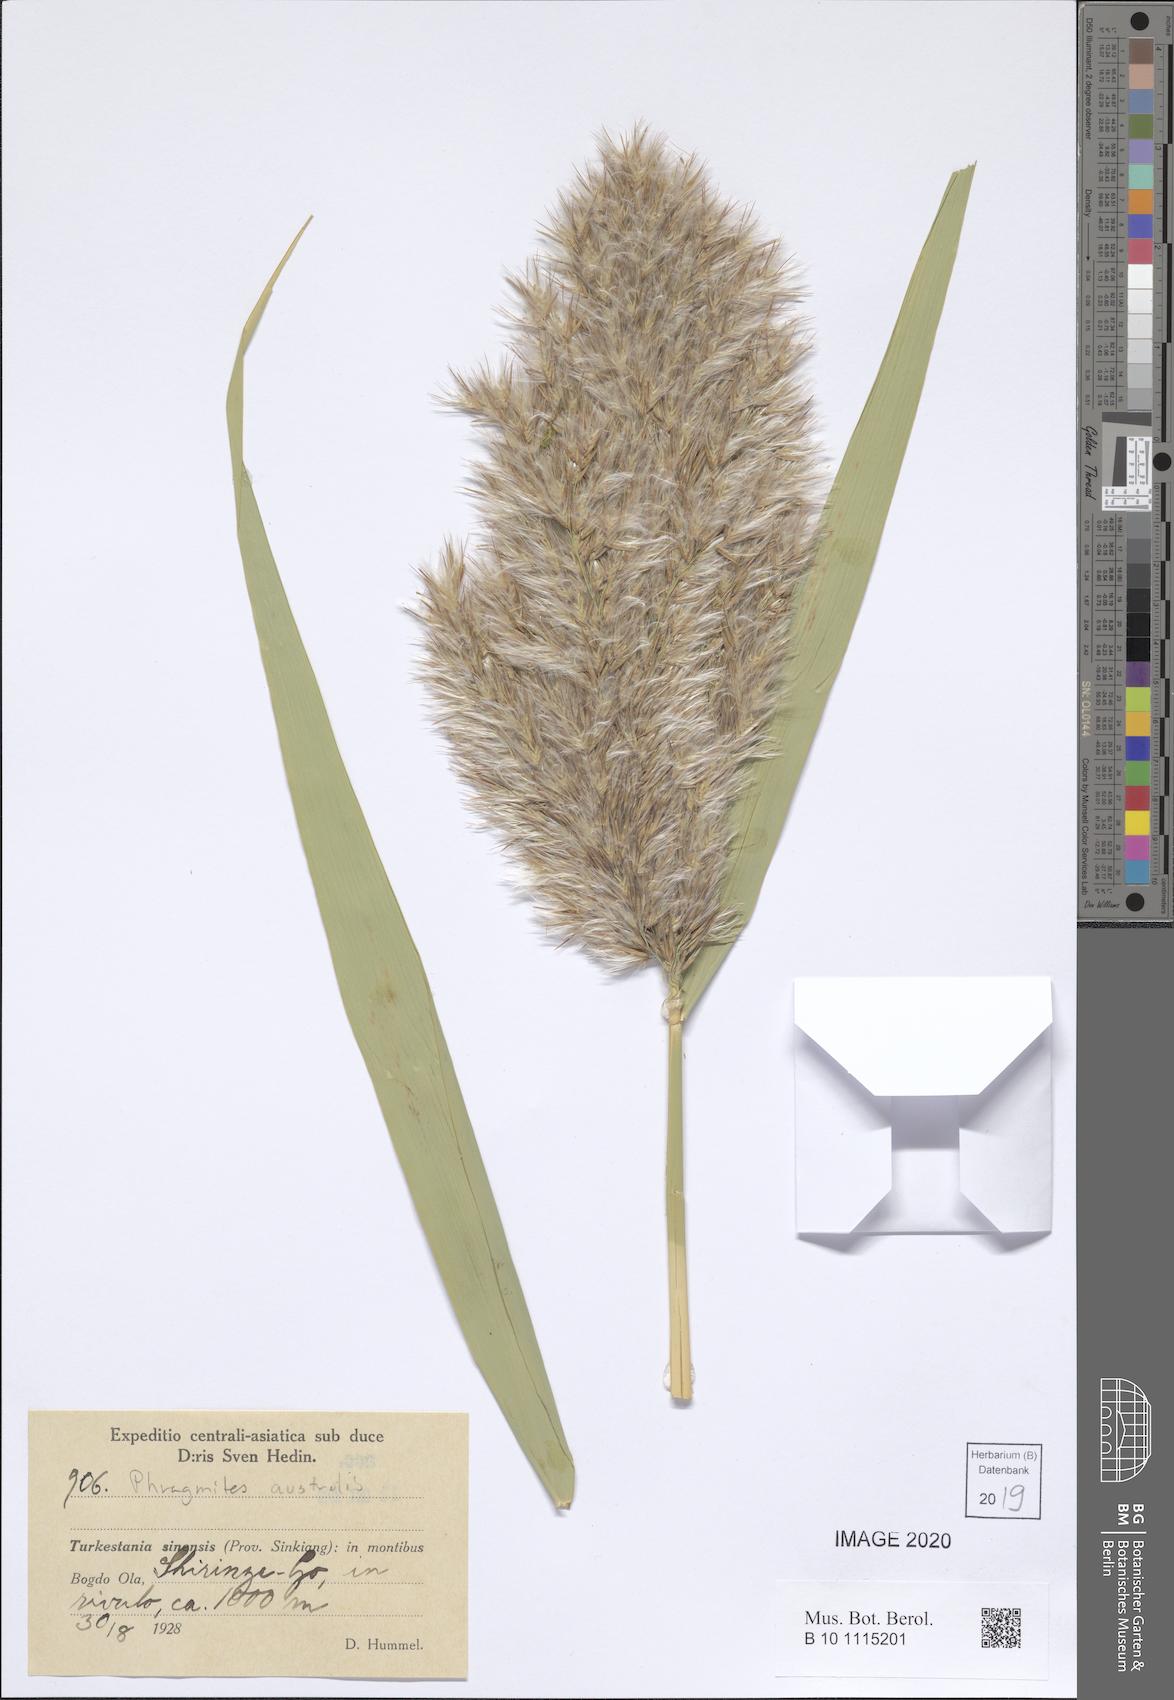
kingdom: Plantae
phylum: Tracheophyta
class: Liliopsida
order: Poales
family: Poaceae
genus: Phragmites
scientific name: Phragmites australis
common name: Common reed
